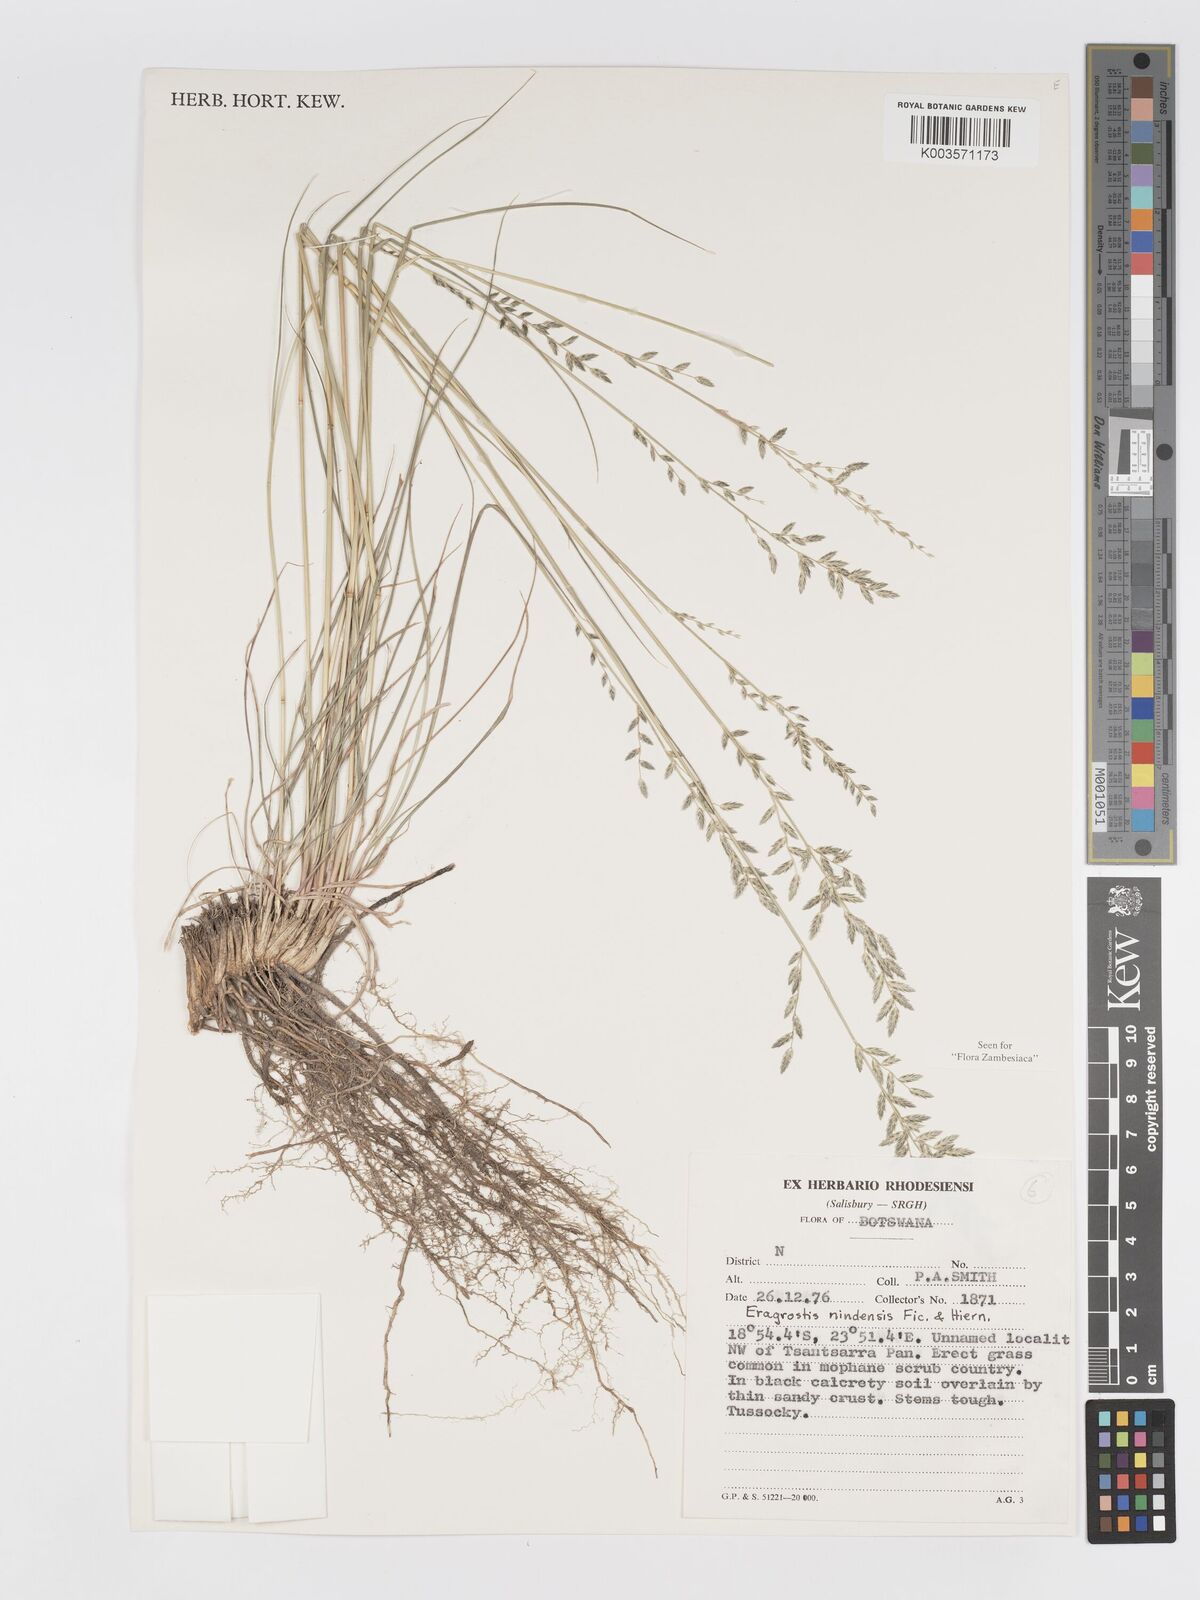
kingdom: Plantae
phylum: Tracheophyta
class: Liliopsida
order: Poales
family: Poaceae
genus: Eragrostis
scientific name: Eragrostis nindensis
